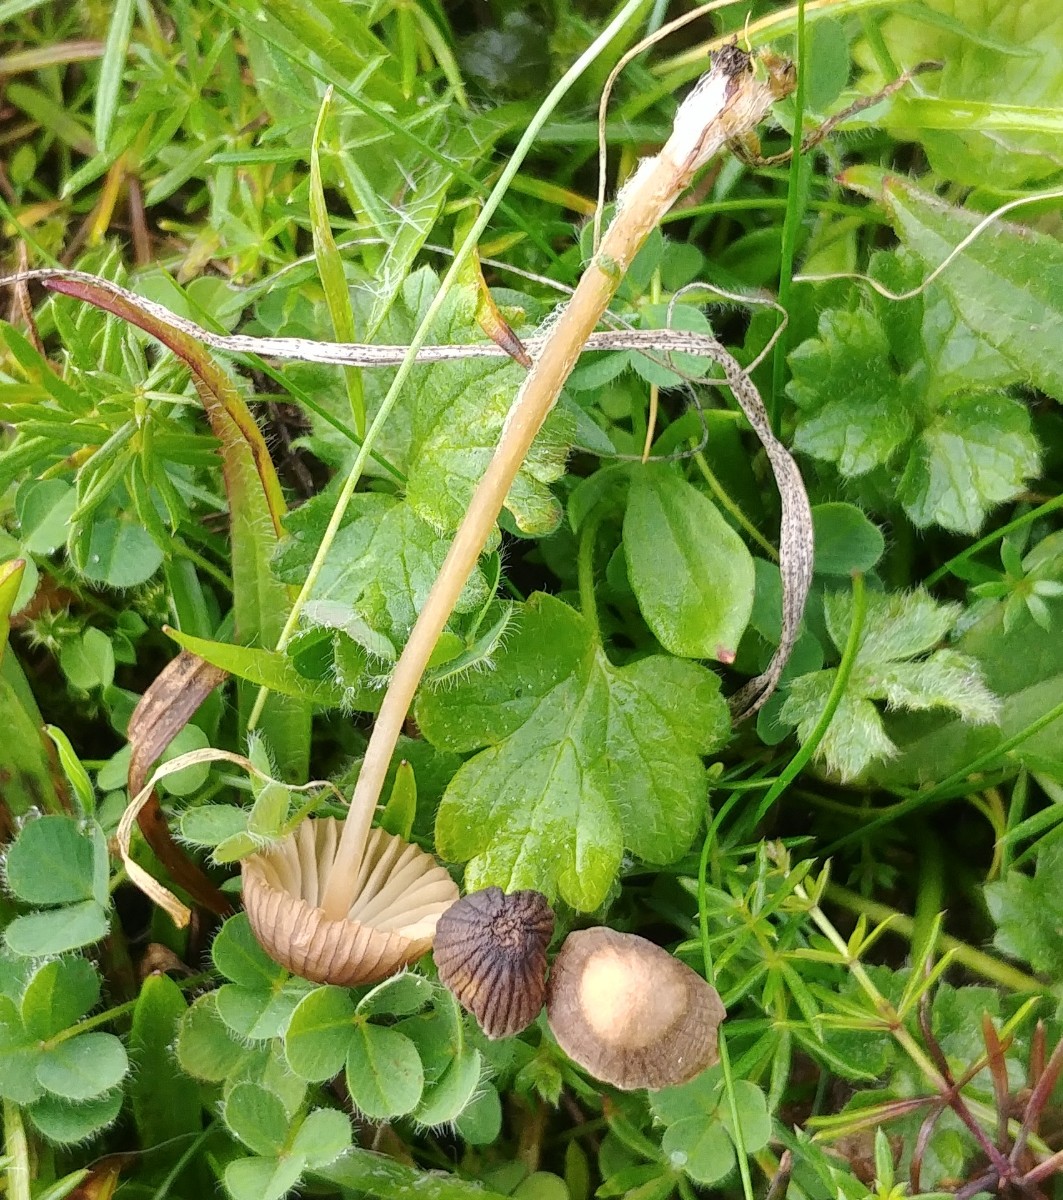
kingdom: Fungi
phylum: Basidiomycota
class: Agaricomycetes
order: Agaricales
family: Mycenaceae
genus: Mycena
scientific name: Mycena
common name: huesvamp
